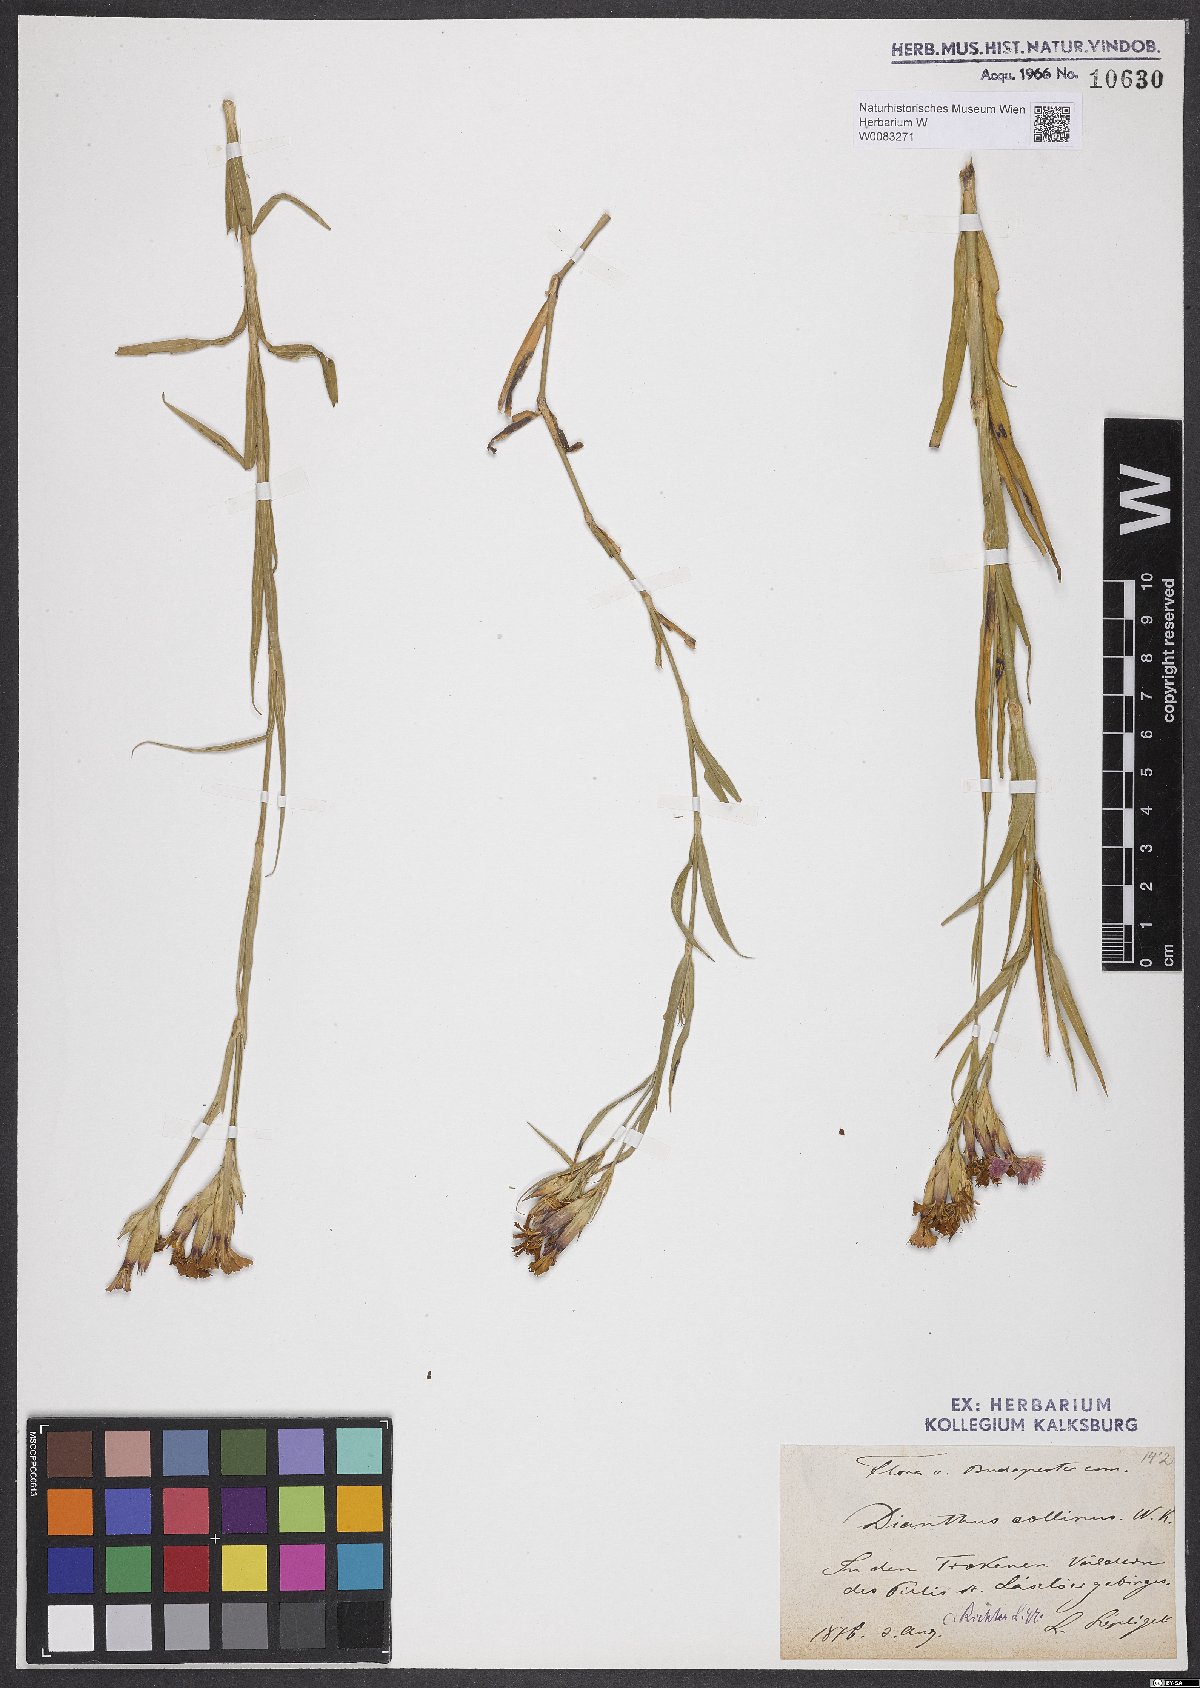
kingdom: Plantae
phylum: Tracheophyta
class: Magnoliopsida
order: Caryophyllales
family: Caryophyllaceae
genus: Dianthus
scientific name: Dianthus collinus
